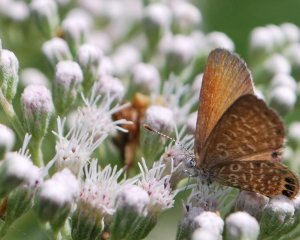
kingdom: Animalia
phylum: Arthropoda
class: Insecta
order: Lepidoptera
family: Lycaenidae
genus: Brephidium
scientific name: Brephidium isophthalma
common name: Eastern Pygmy-Blue
